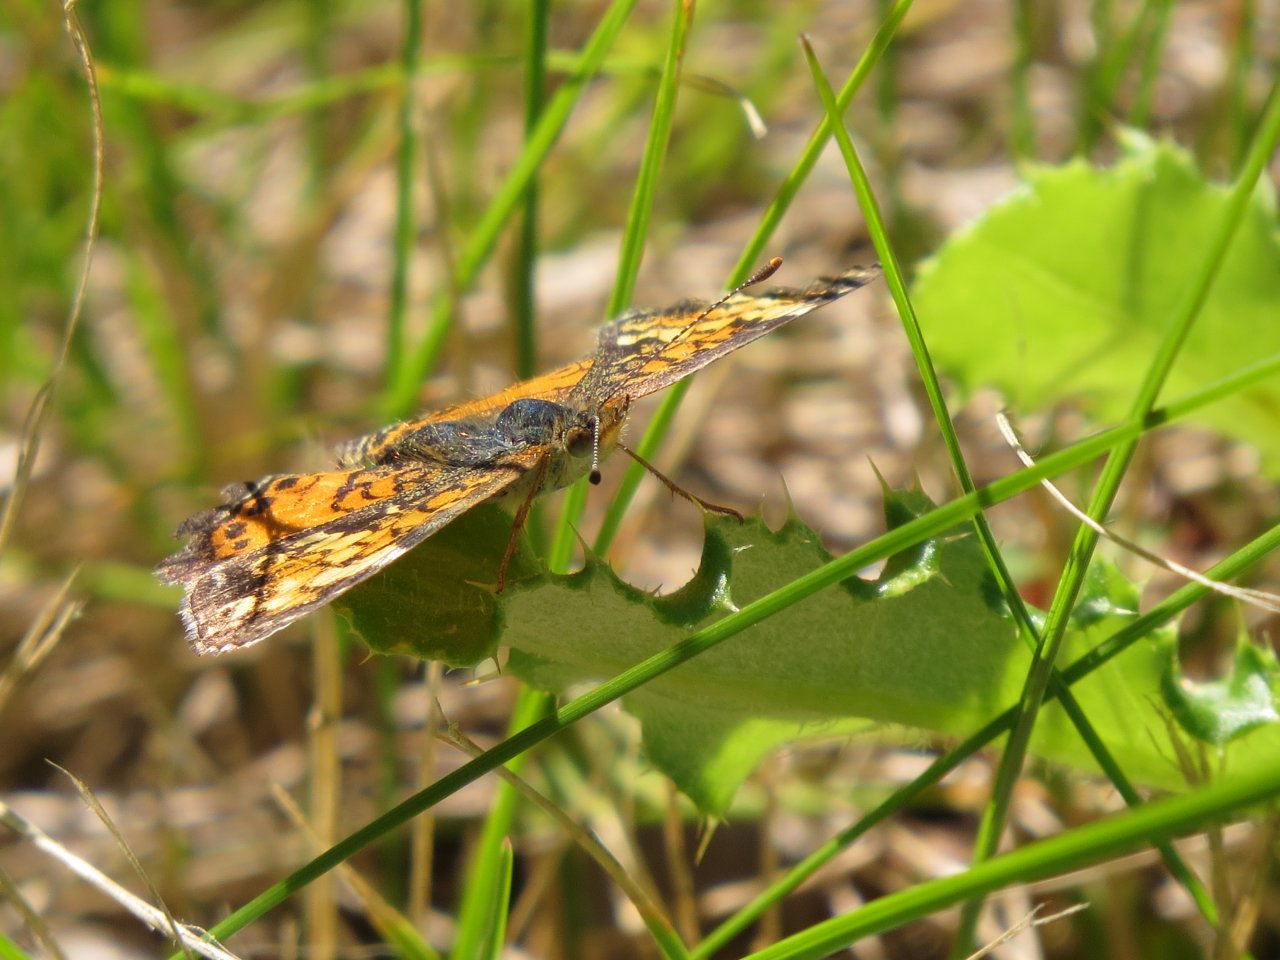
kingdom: Animalia
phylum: Arthropoda
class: Insecta
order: Lepidoptera
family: Nymphalidae
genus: Phyciodes
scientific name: Phyciodes tharos
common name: Northern Crescent
